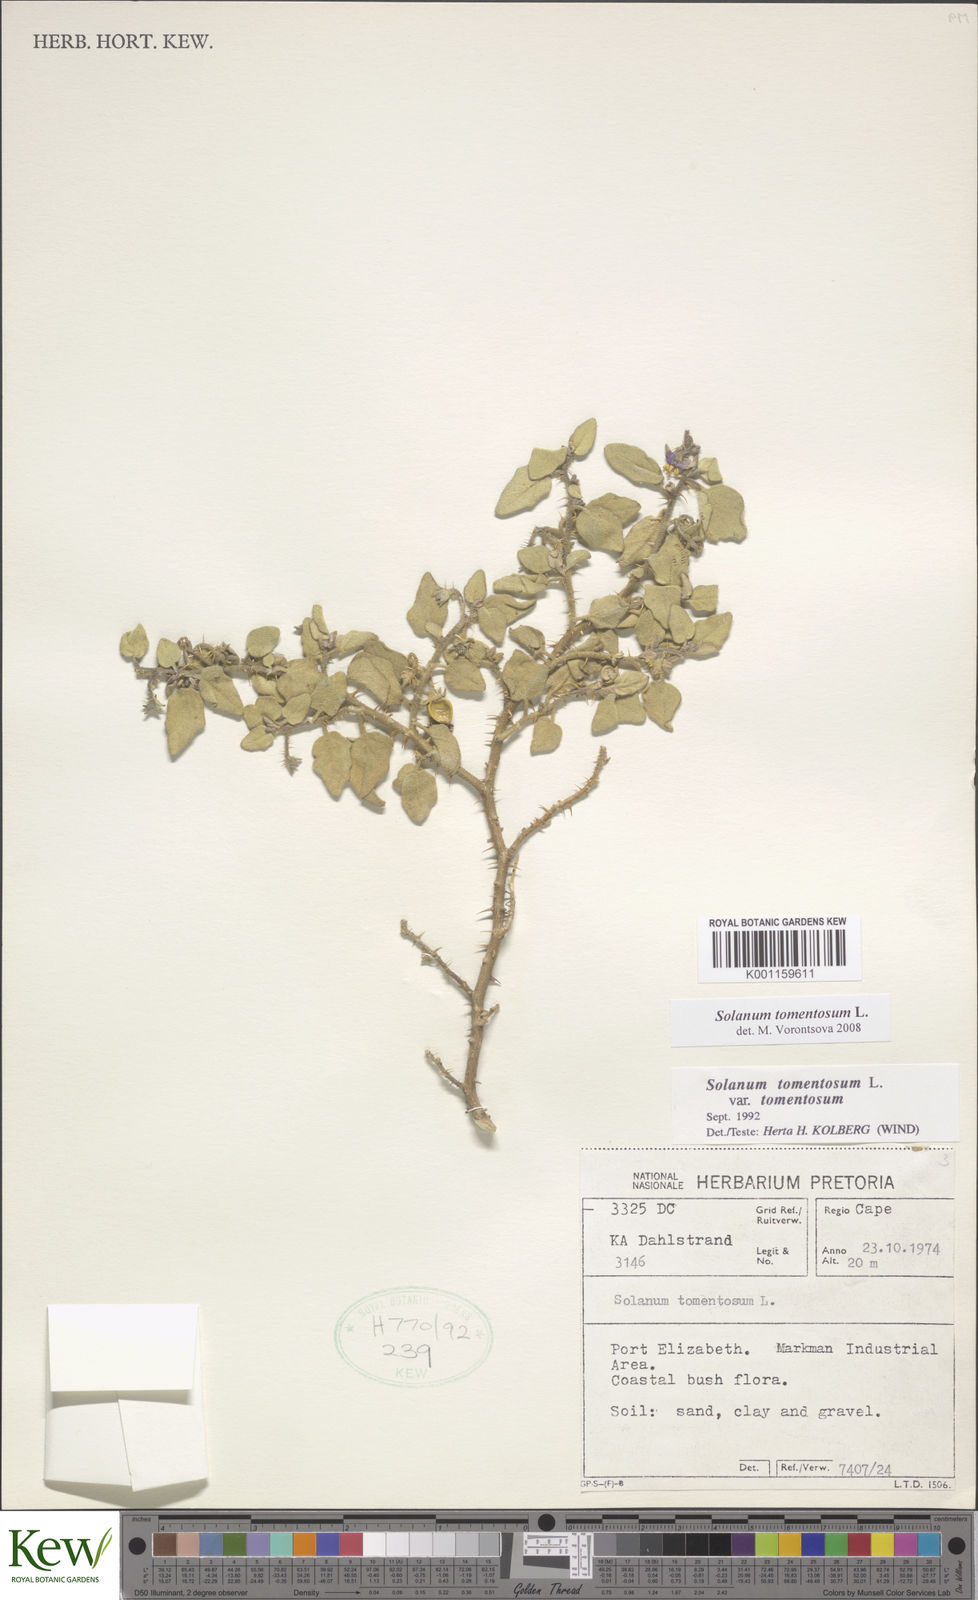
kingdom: Plantae
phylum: Tracheophyta
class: Magnoliopsida
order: Solanales
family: Solanaceae
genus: Solanum
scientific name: Solanum tomentosum
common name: Wild aubergine
